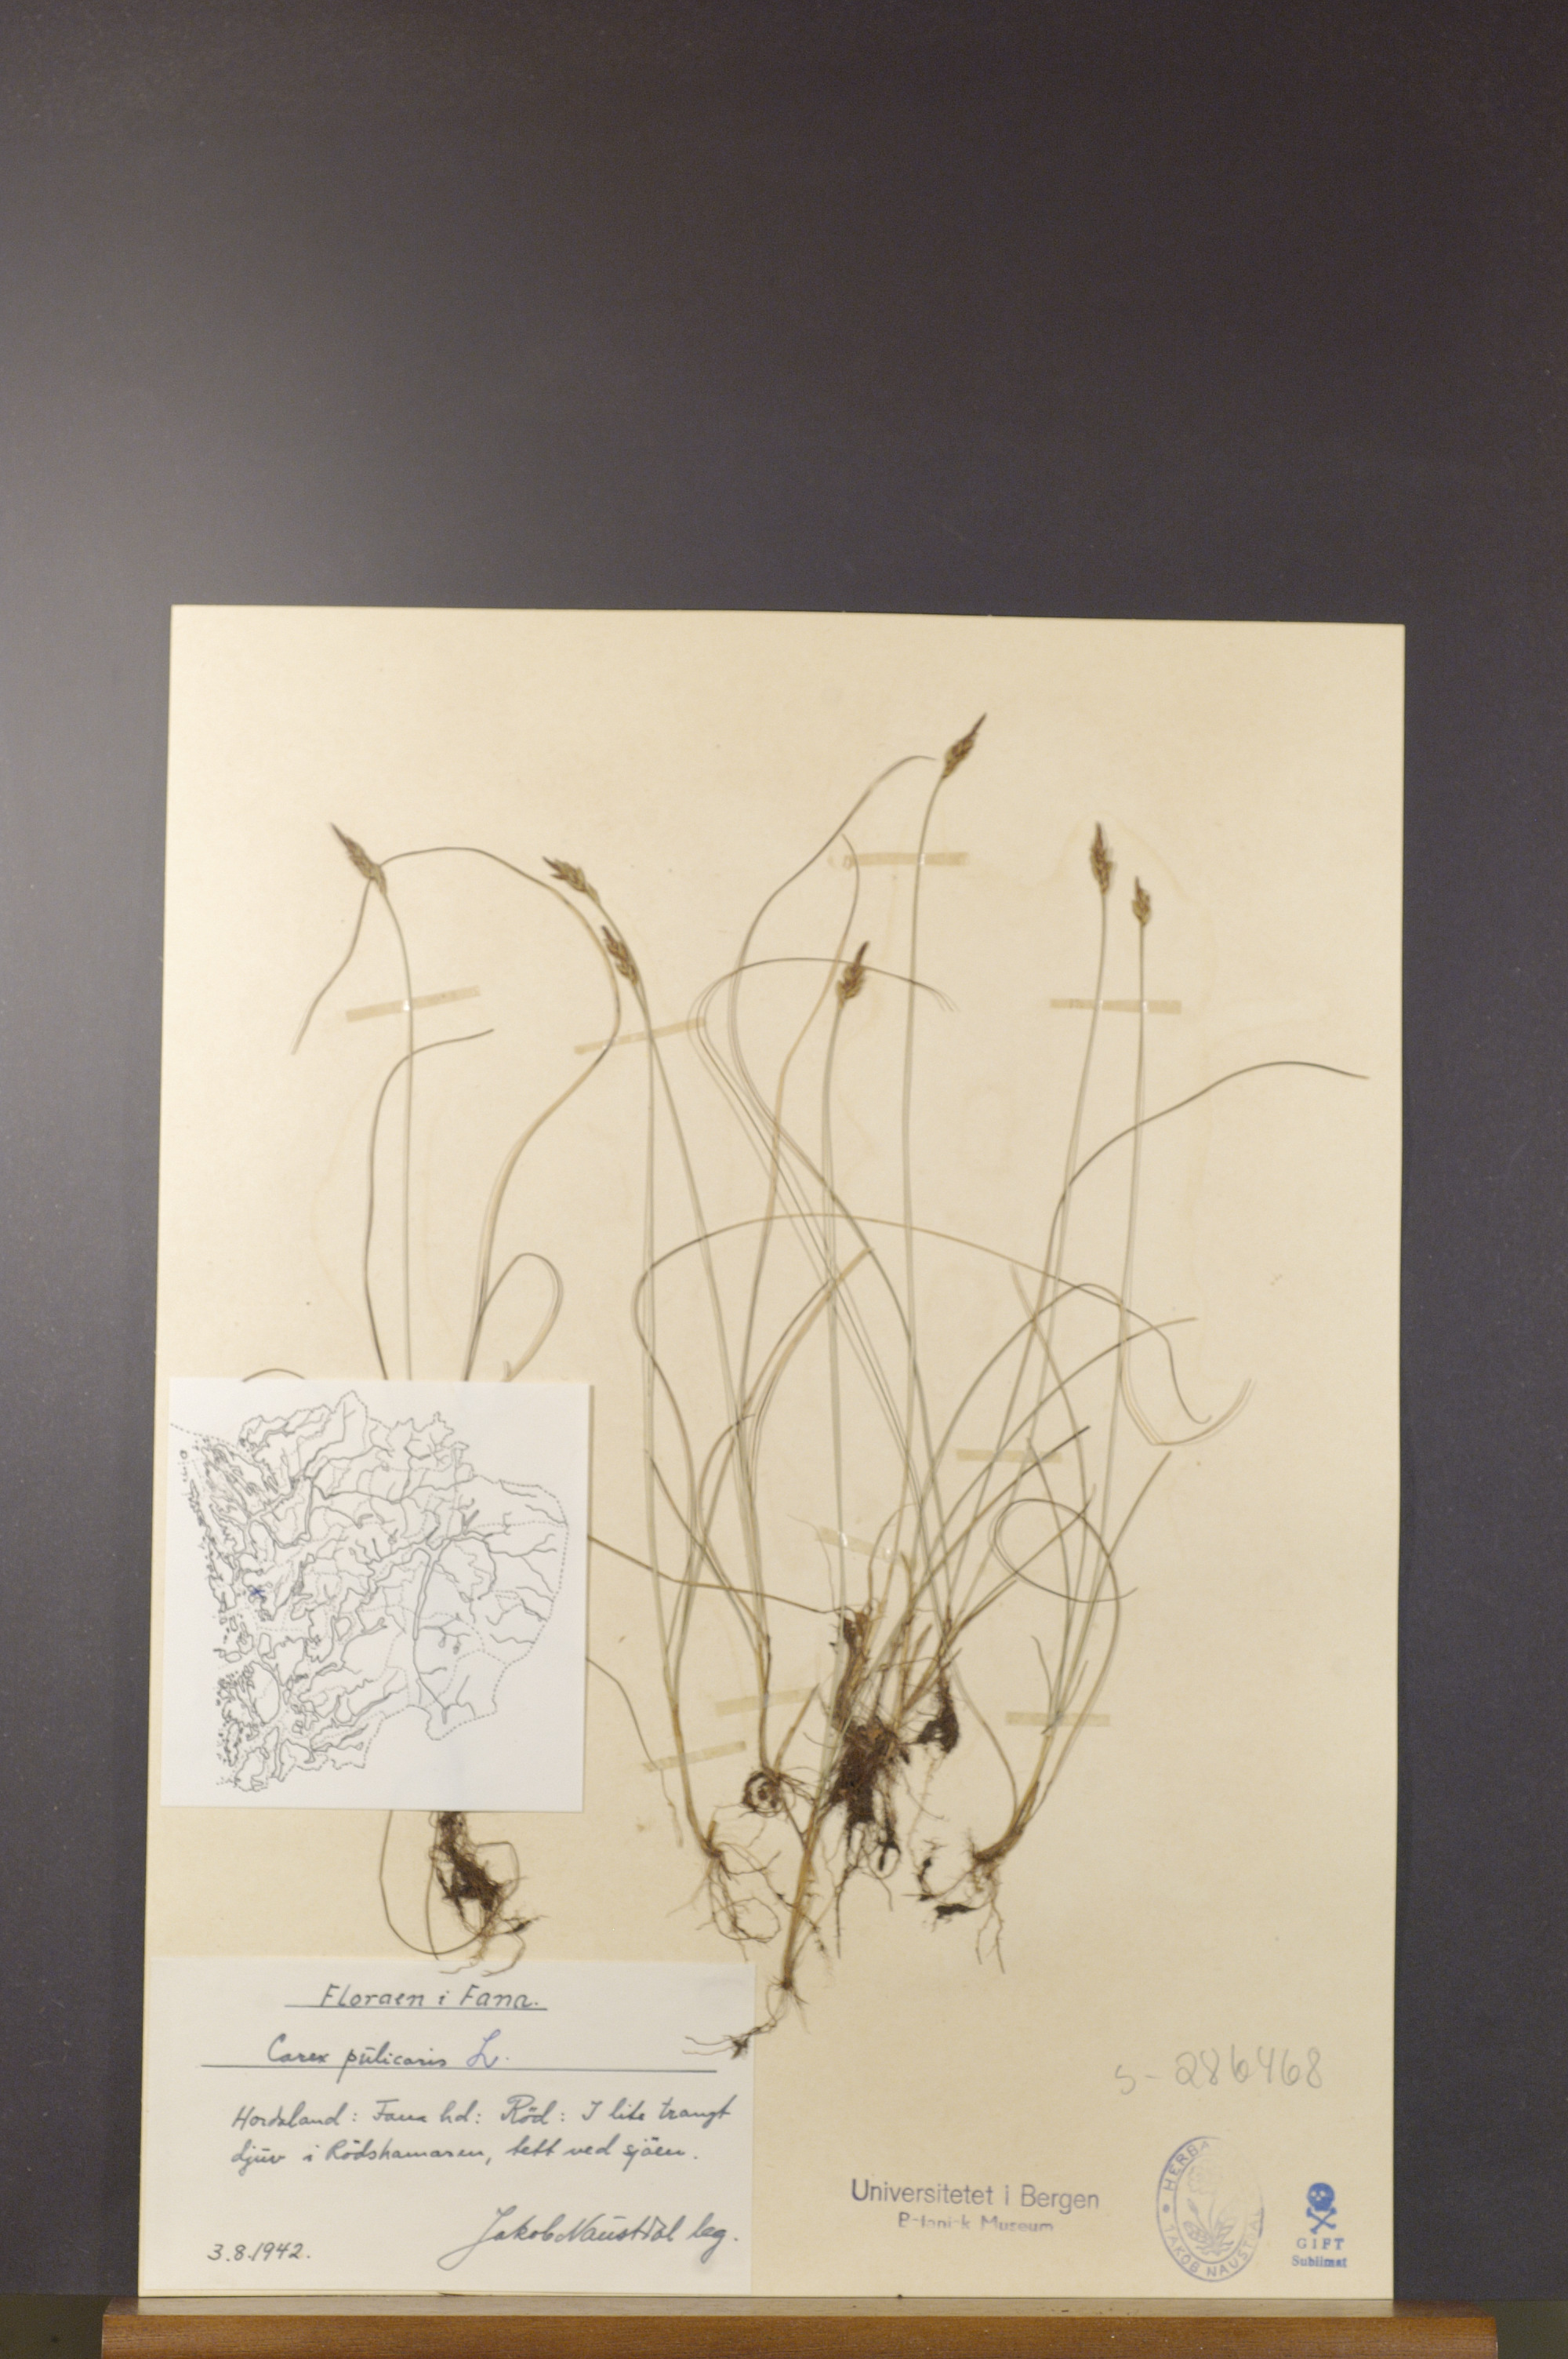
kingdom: Plantae
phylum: Tracheophyta
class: Liliopsida
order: Poales
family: Cyperaceae
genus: Carex
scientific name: Carex pulicaris
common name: Flea sedge
